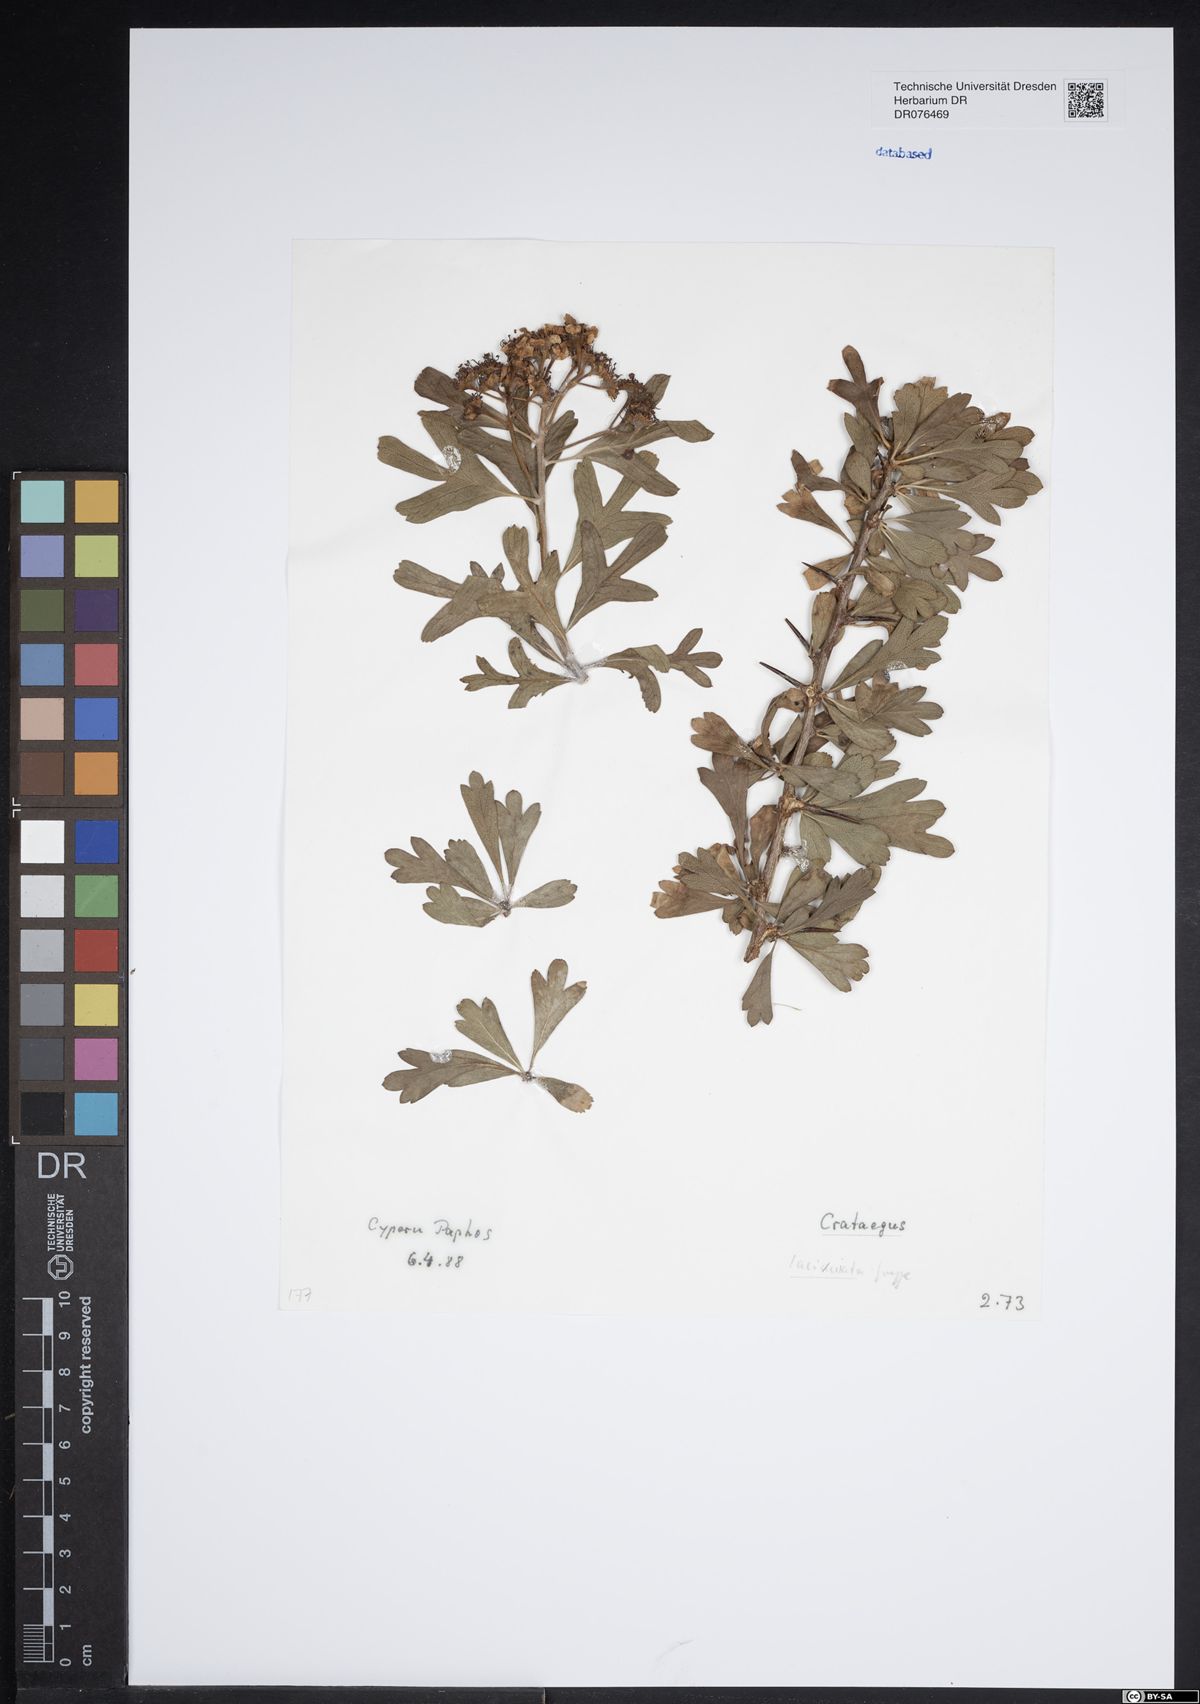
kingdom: Plantae
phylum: Tracheophyta
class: Magnoliopsida
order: Rosales
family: Rosaceae
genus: Crataegus
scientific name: Crataegus laciniata
